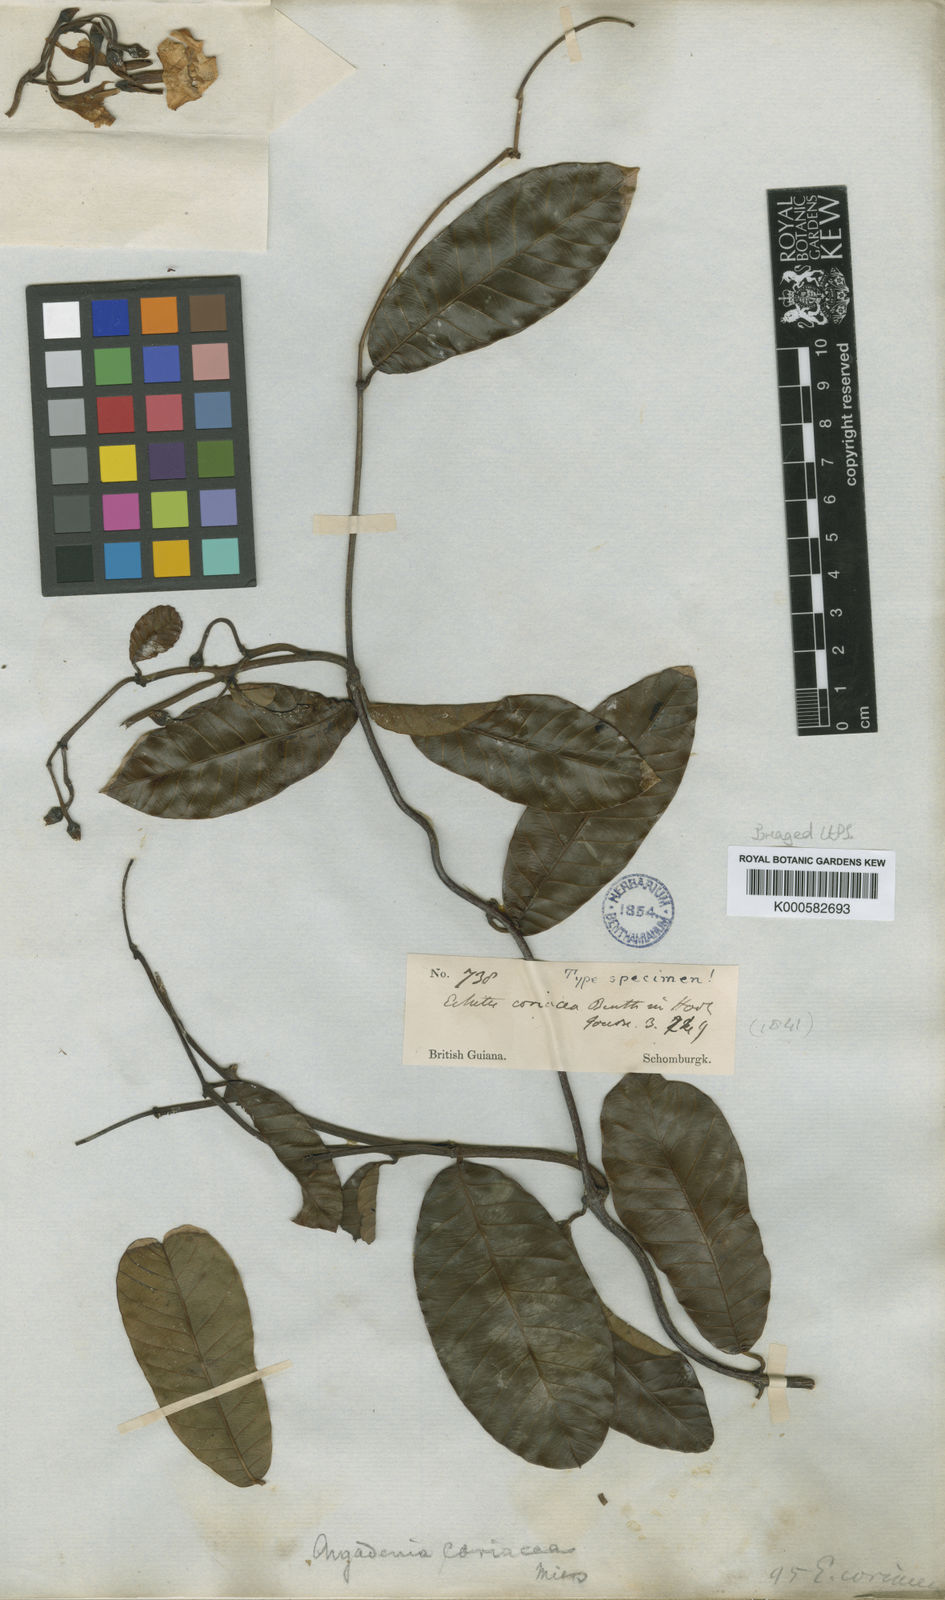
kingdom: Plantae
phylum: Tracheophyta
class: Magnoliopsida
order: Gentianales
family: Apocynaceae
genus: Odontadenia
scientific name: Odontadenia
